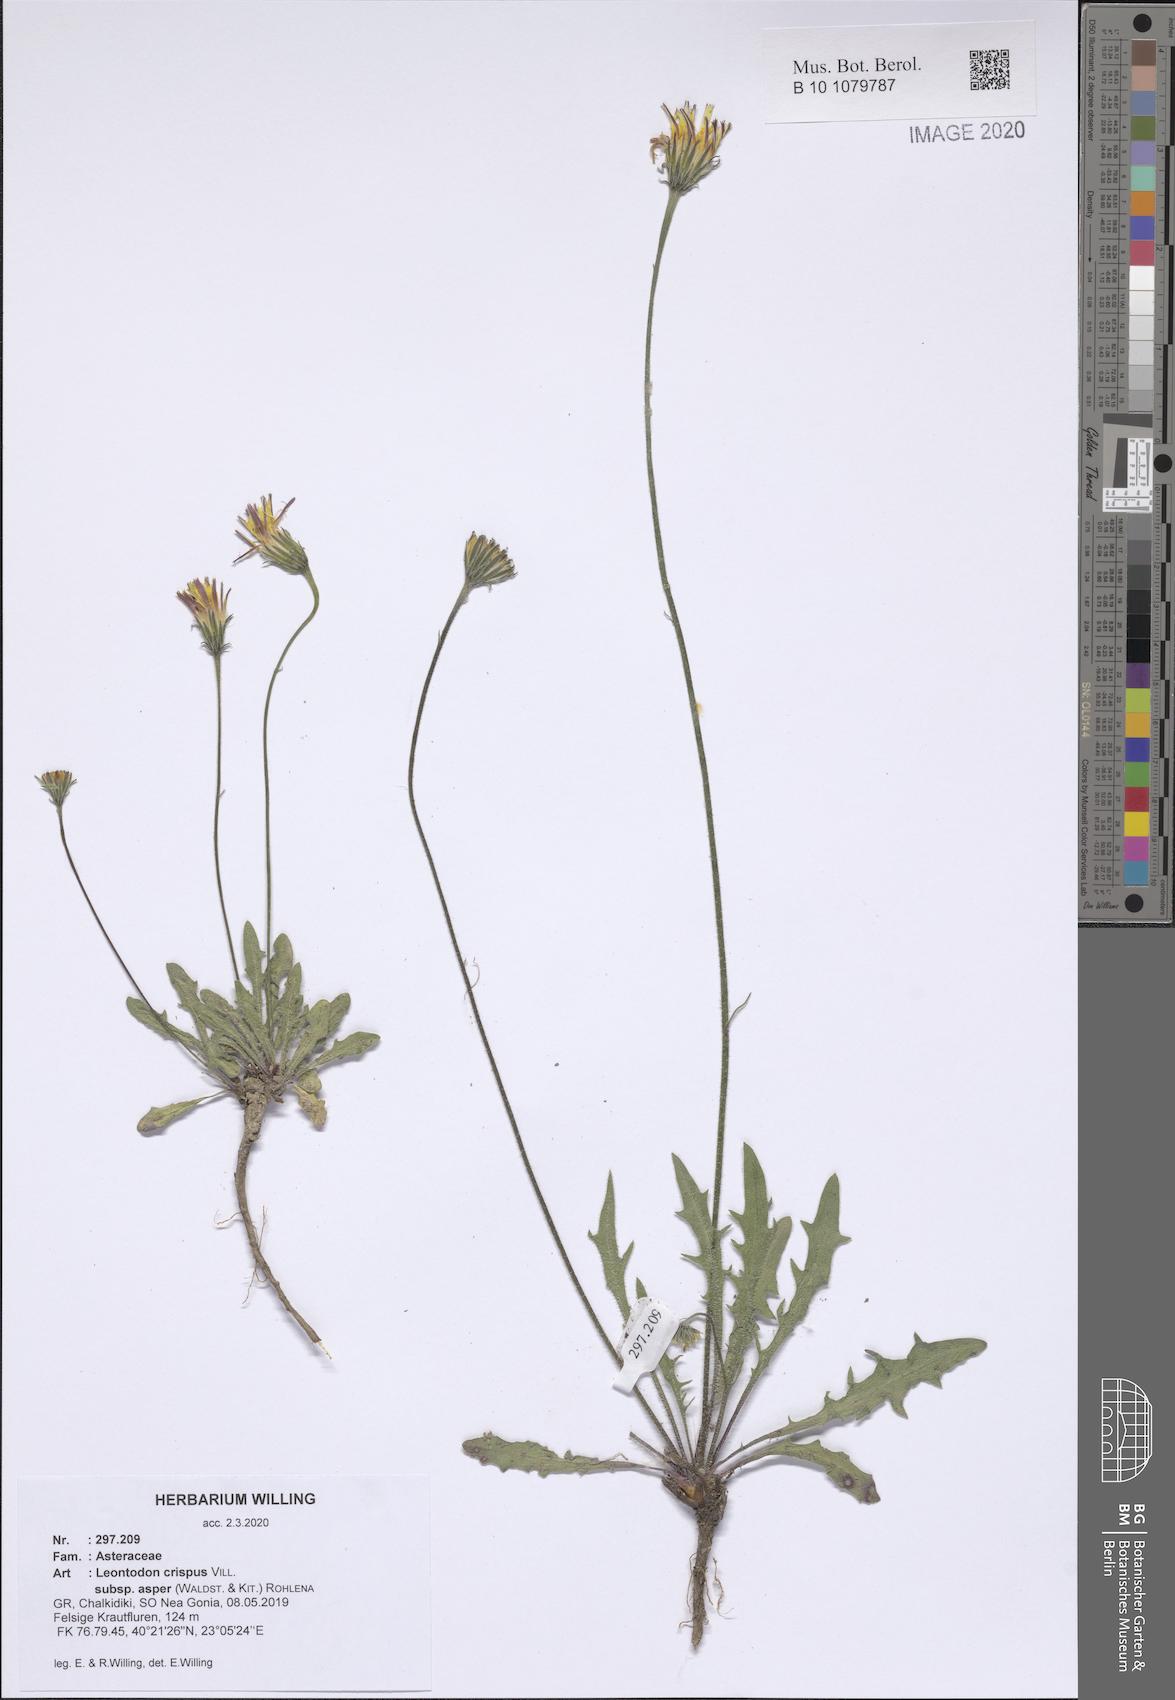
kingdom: Plantae
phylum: Tracheophyta
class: Magnoliopsida
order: Asterales
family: Asteraceae
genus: Leontodon
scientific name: Leontodon biscutellifolius
